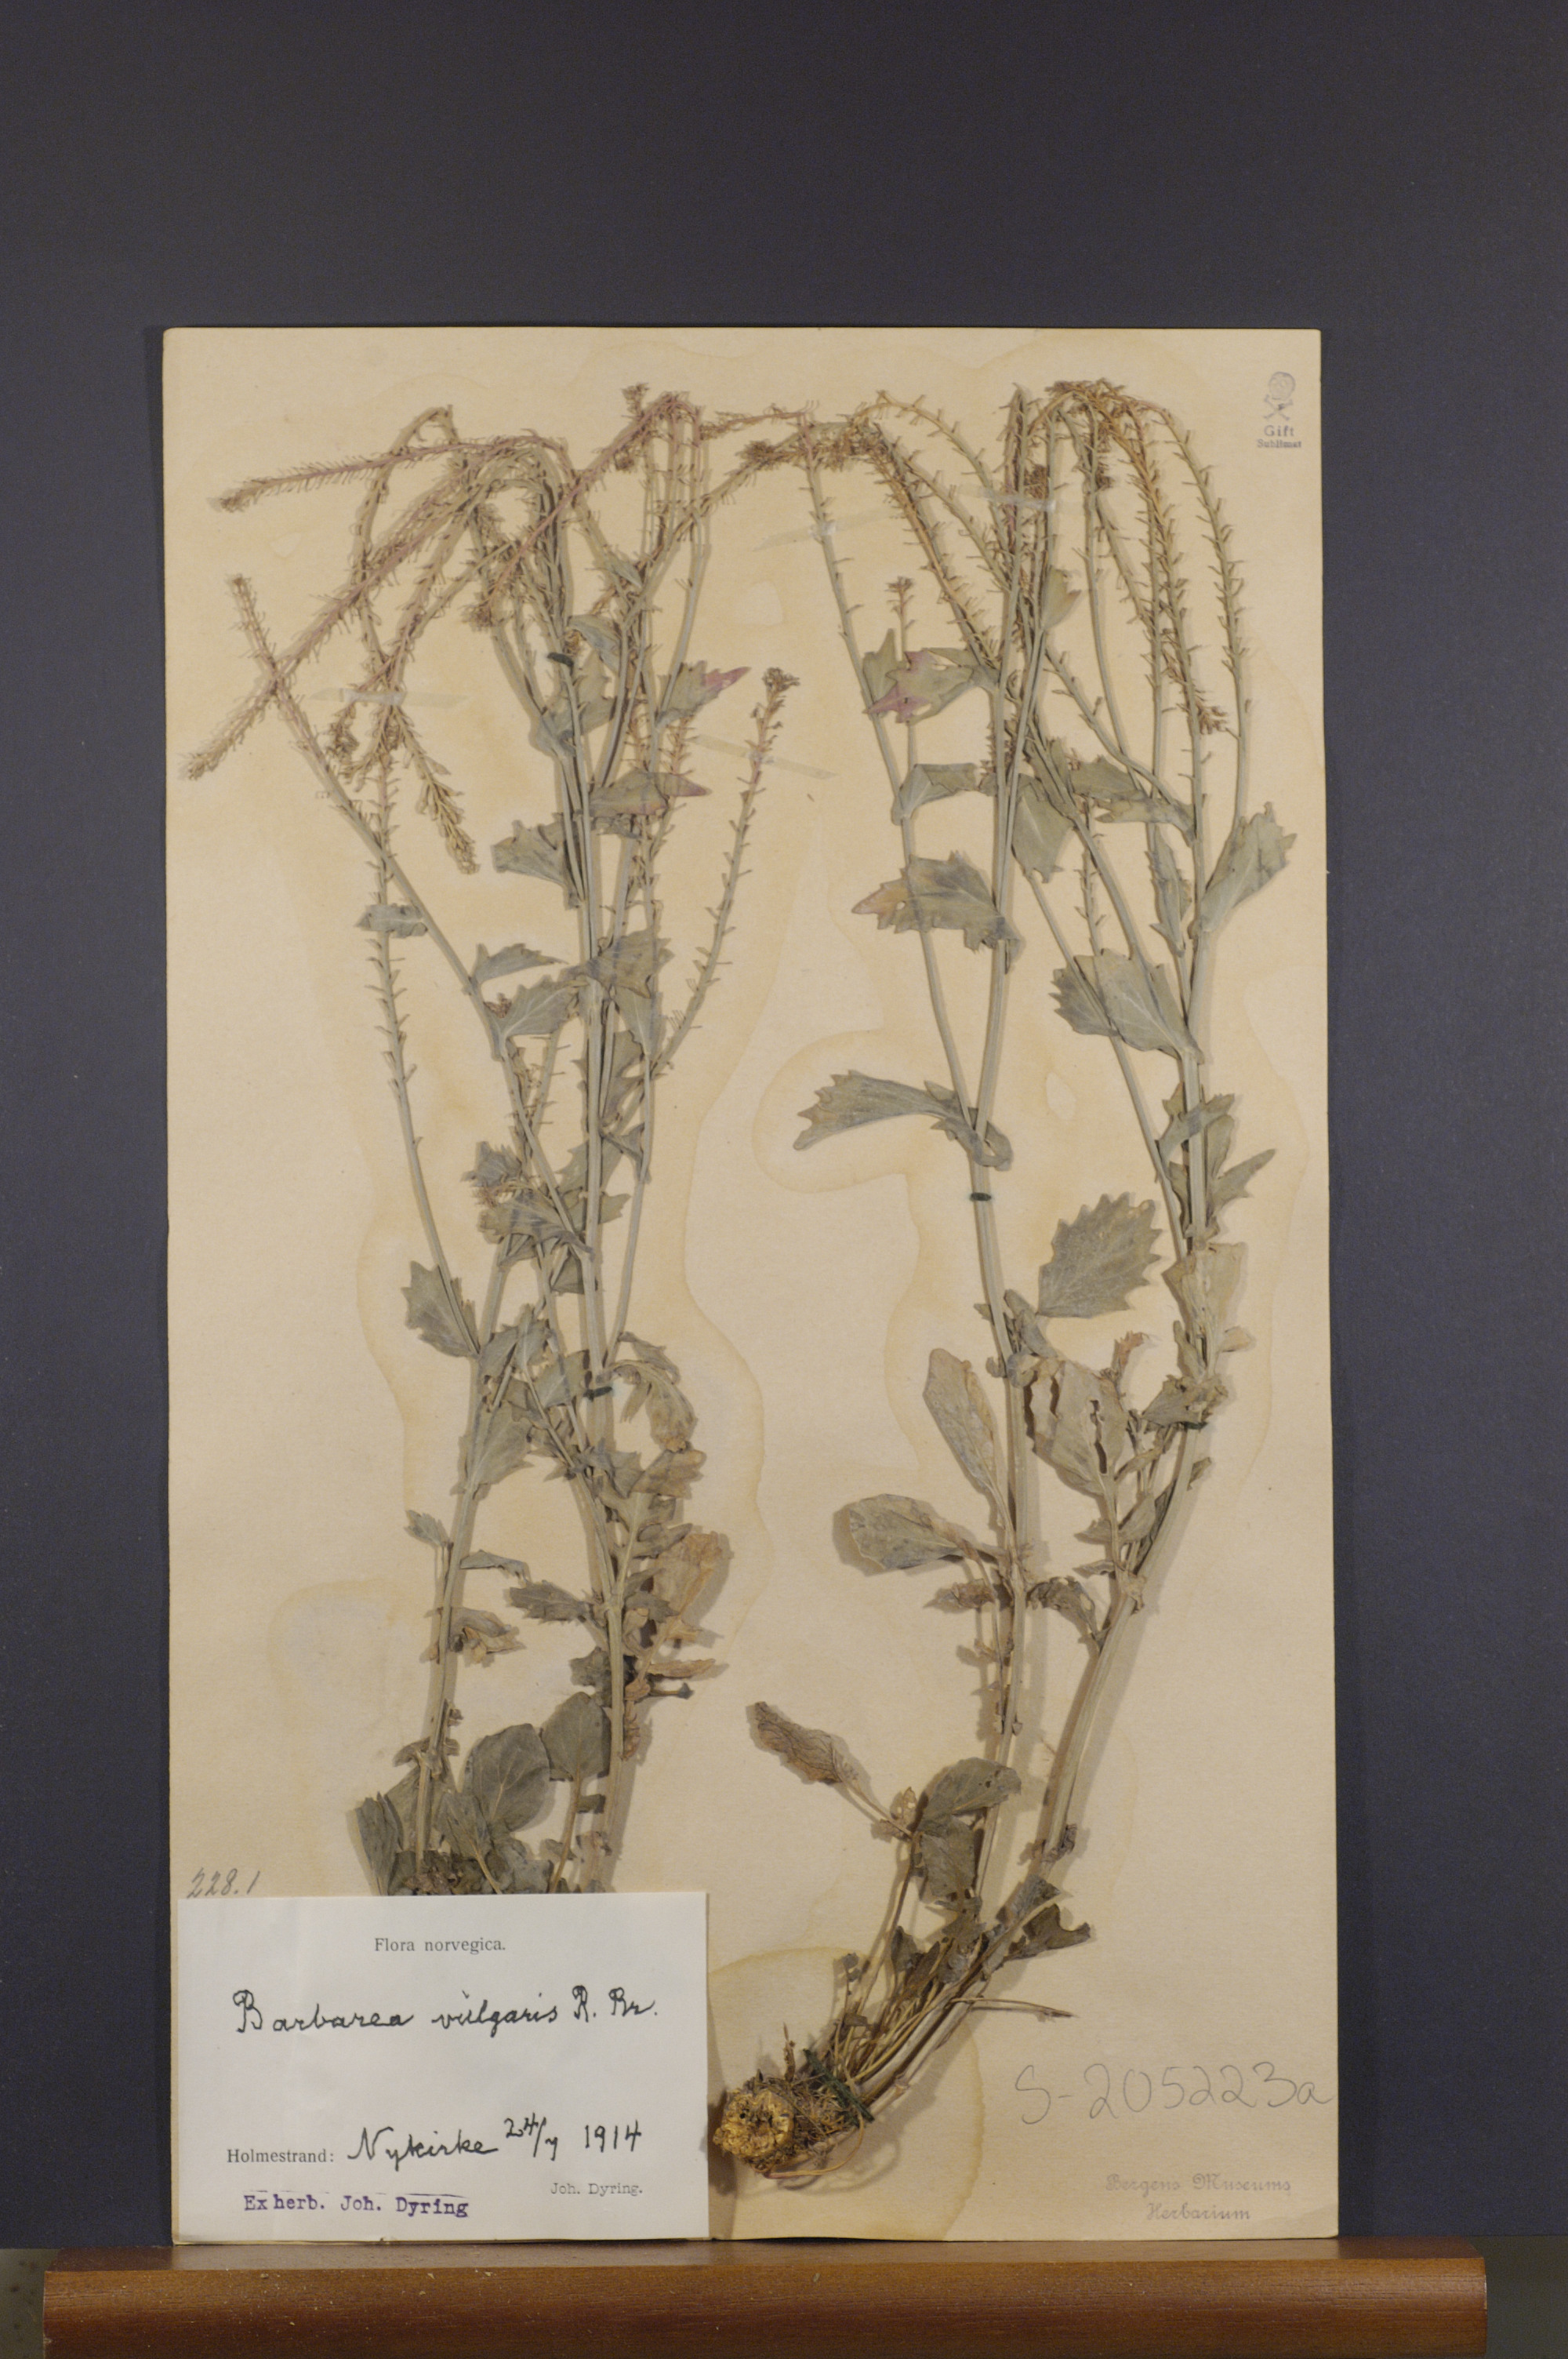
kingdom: Plantae
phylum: Tracheophyta
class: Magnoliopsida
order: Brassicales
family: Brassicaceae
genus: Barbarea
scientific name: Barbarea vulgaris
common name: Cressy-greens
